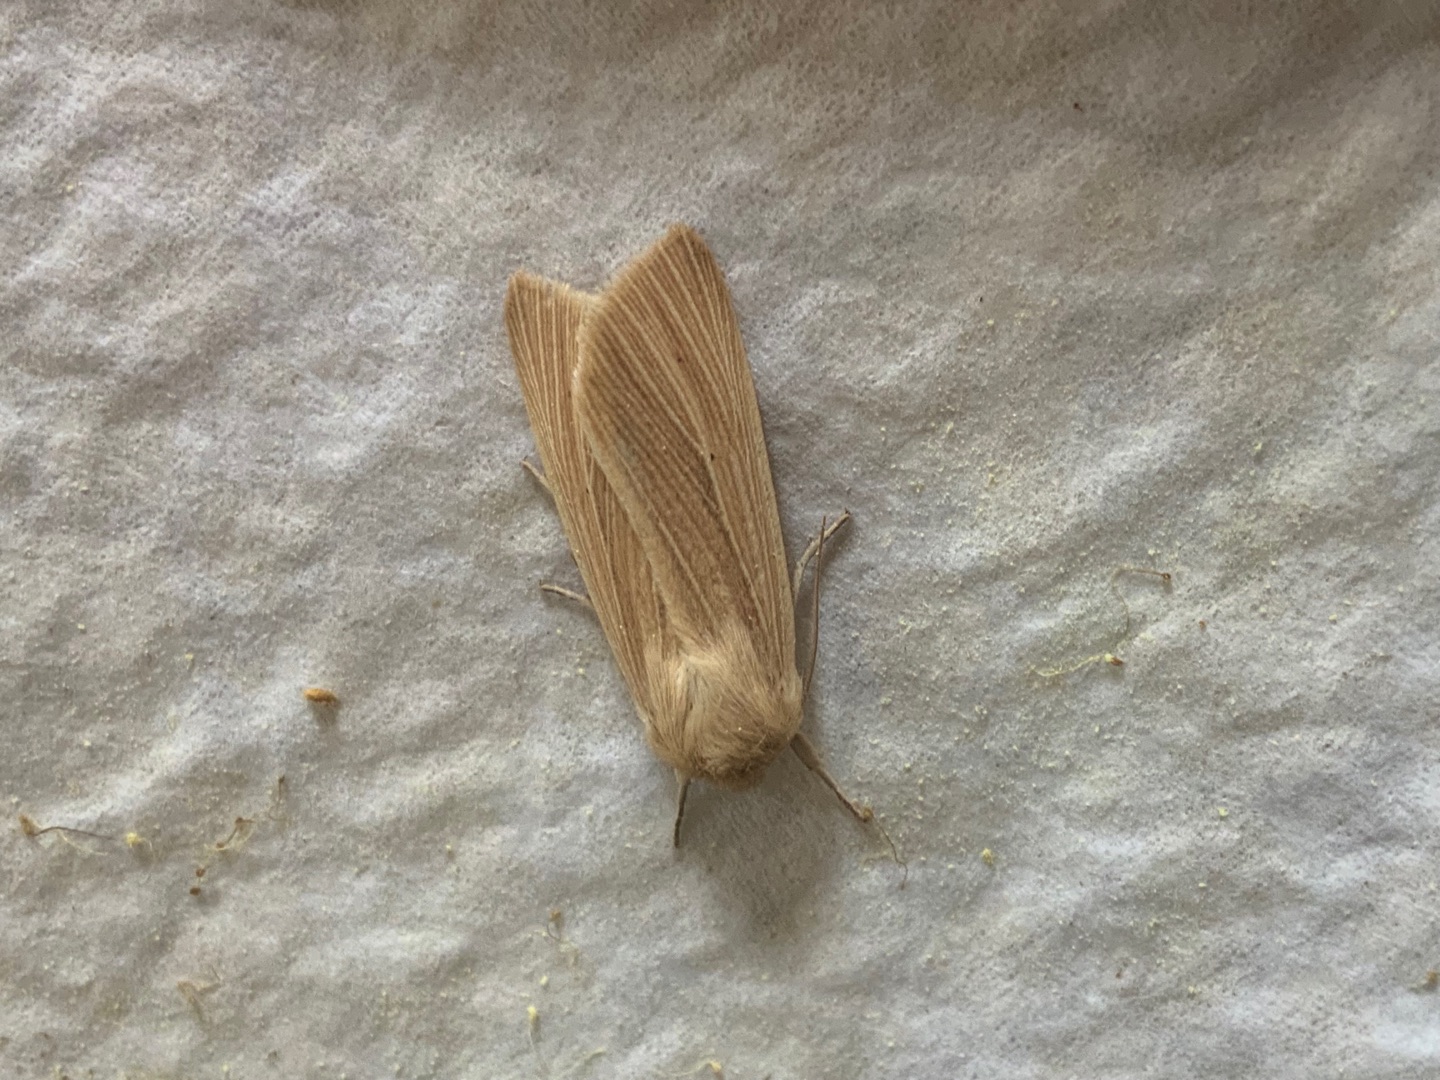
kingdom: Animalia
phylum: Arthropoda
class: Insecta
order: Lepidoptera
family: Noctuidae
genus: Mythimna
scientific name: Mythimna pallens
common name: Halmugle
